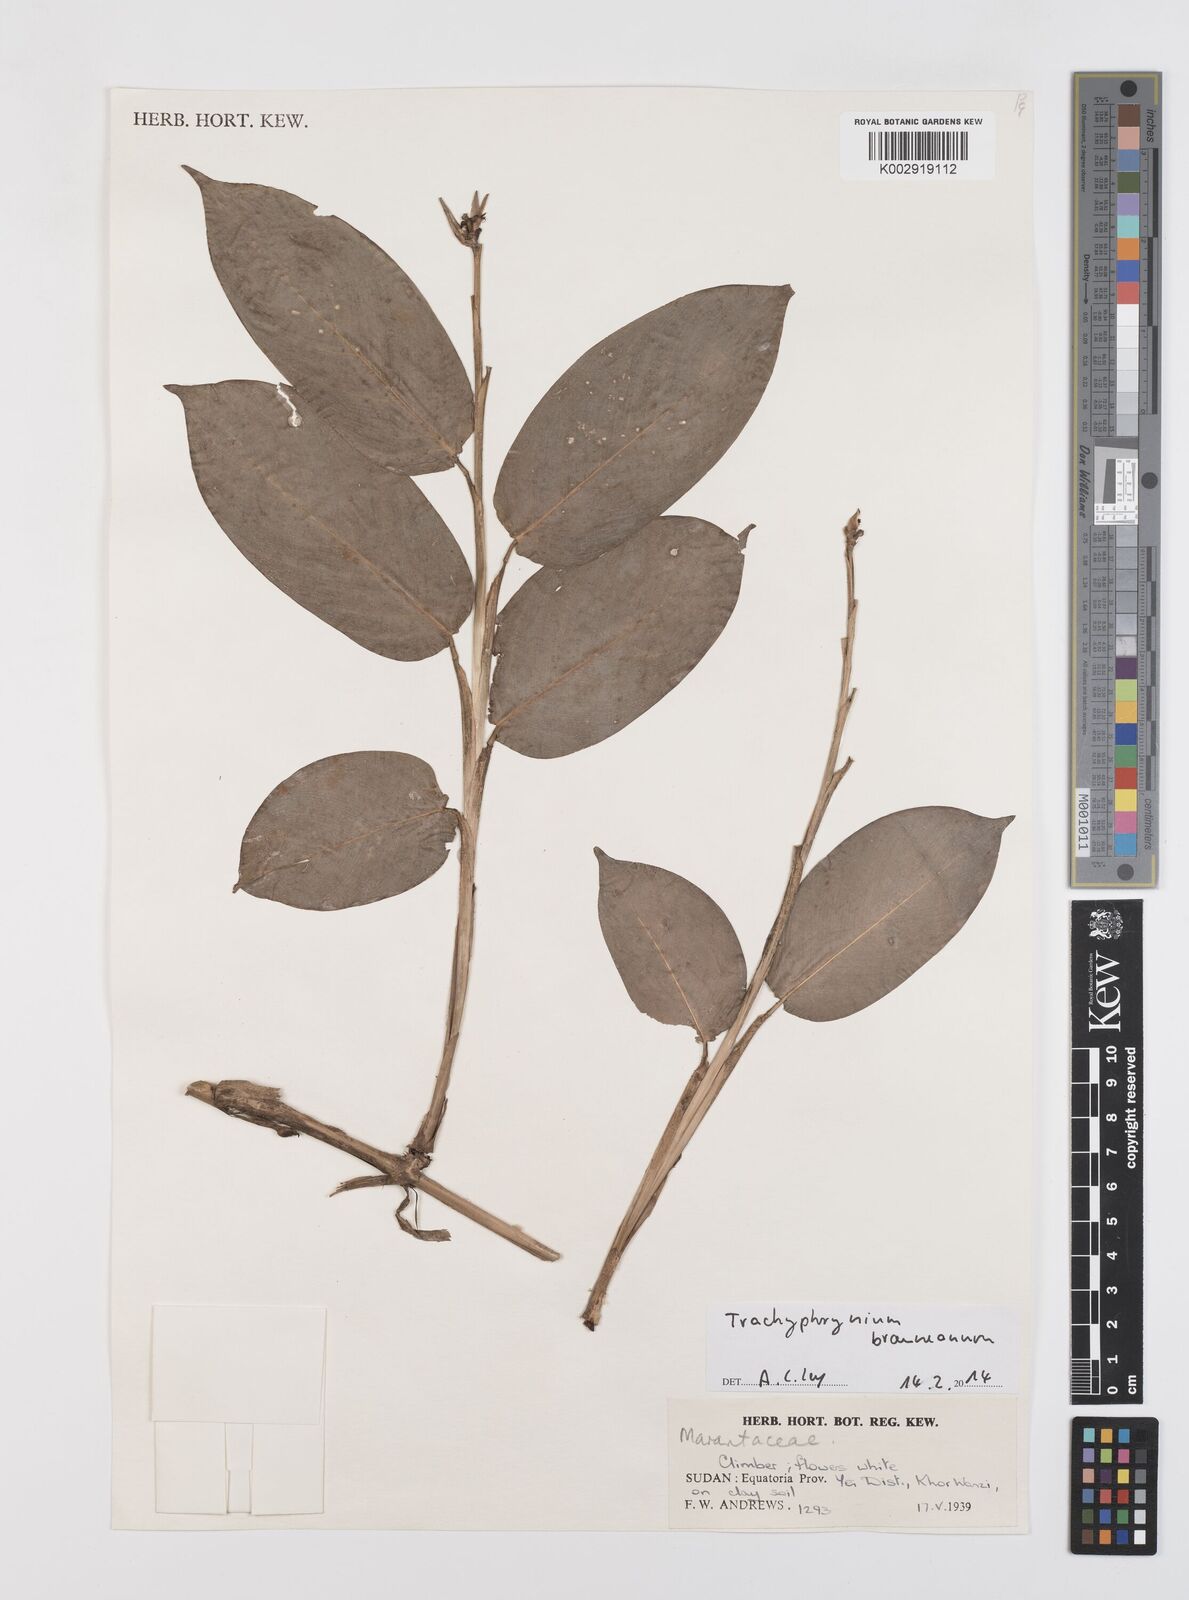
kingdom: Plantae
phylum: Tracheophyta
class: Liliopsida
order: Zingiberales
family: Marantaceae
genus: Trachyphrynium
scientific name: Trachyphrynium braunianum
